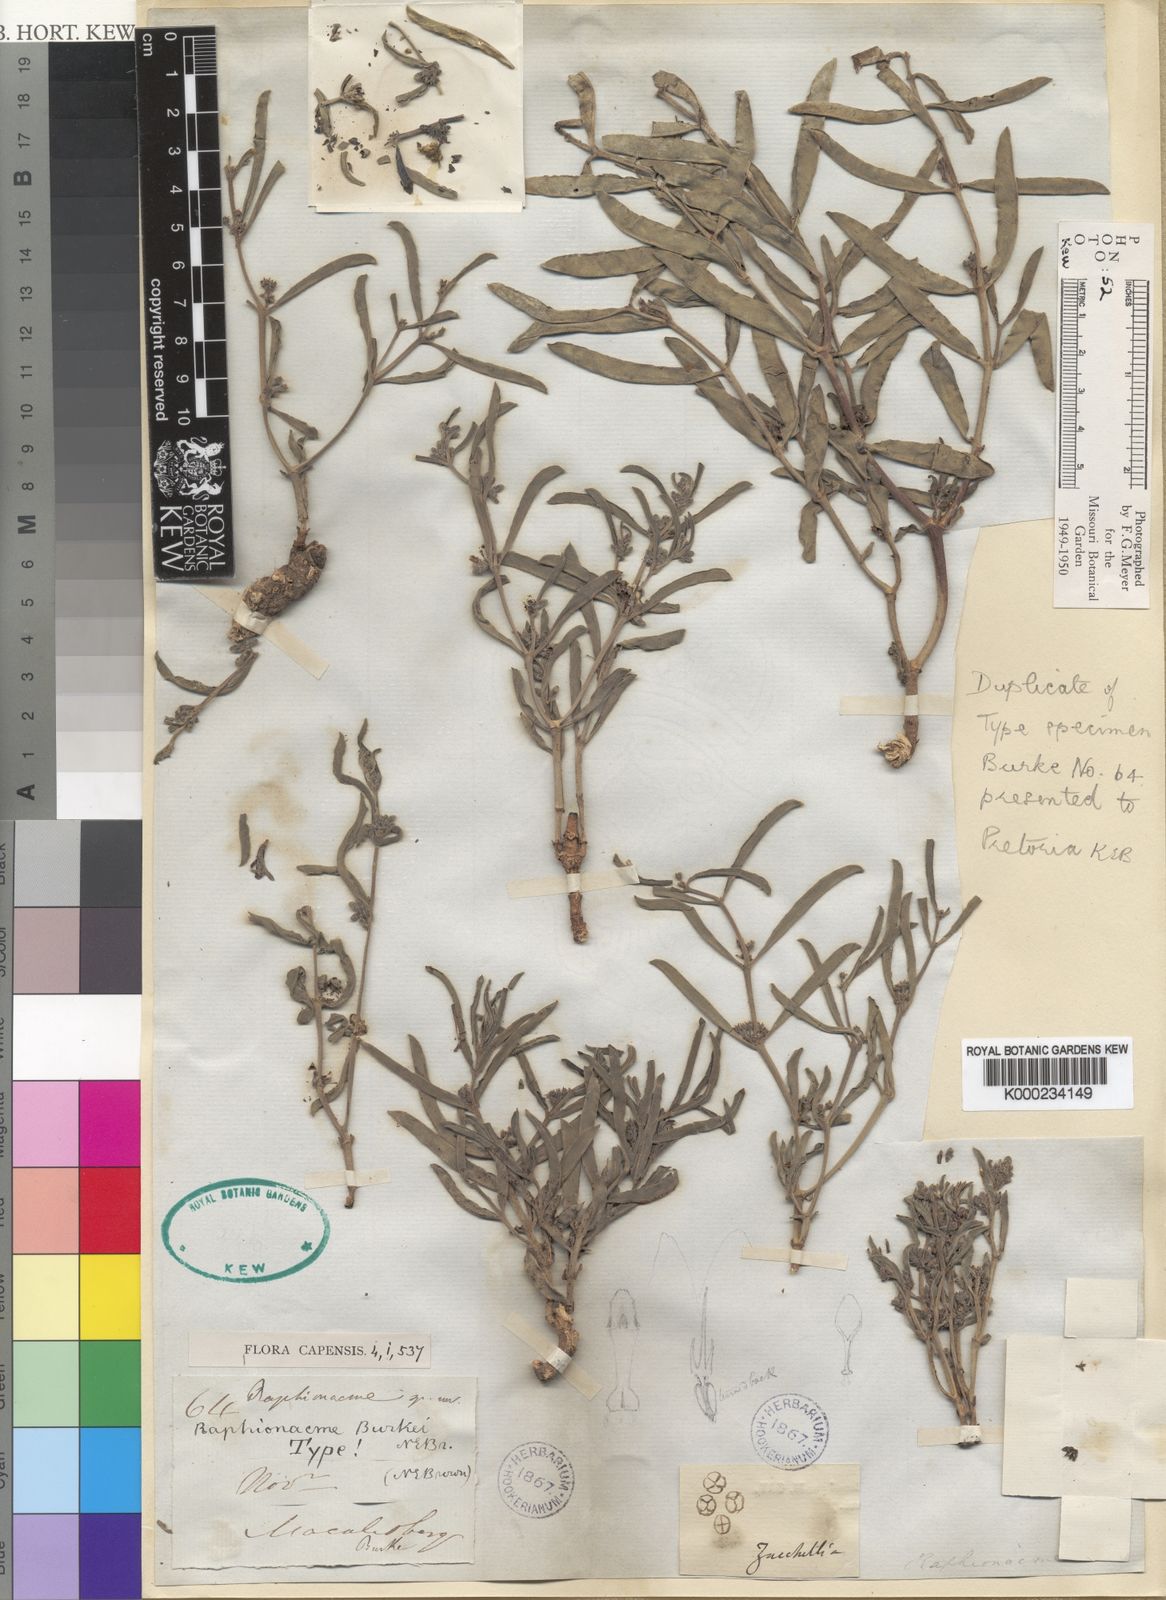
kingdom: Plantae
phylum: Tracheophyta
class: Magnoliopsida
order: Gentianales
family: Apocynaceae
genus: Raphionacme
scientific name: Raphionacme velutina
